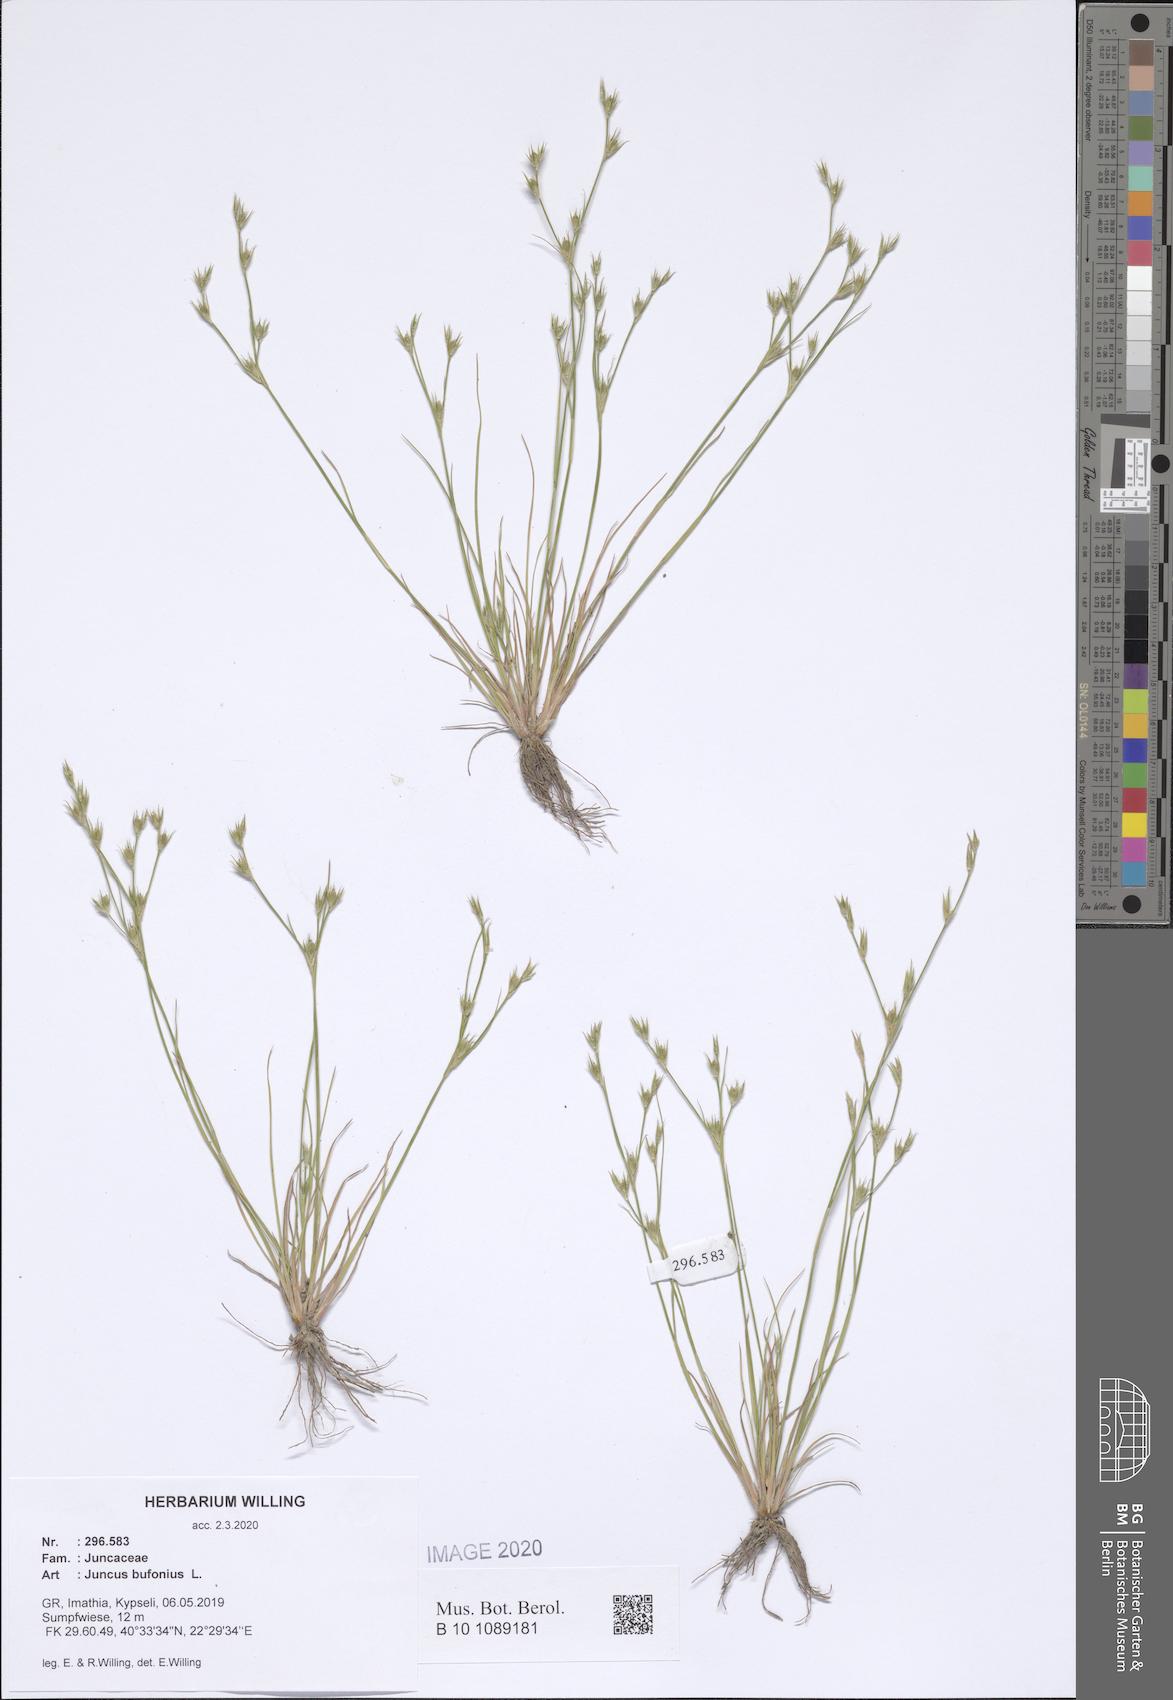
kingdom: Plantae
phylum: Tracheophyta
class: Liliopsida
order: Poales
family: Juncaceae
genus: Juncus
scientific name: Juncus bufonius
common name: Toad rush
